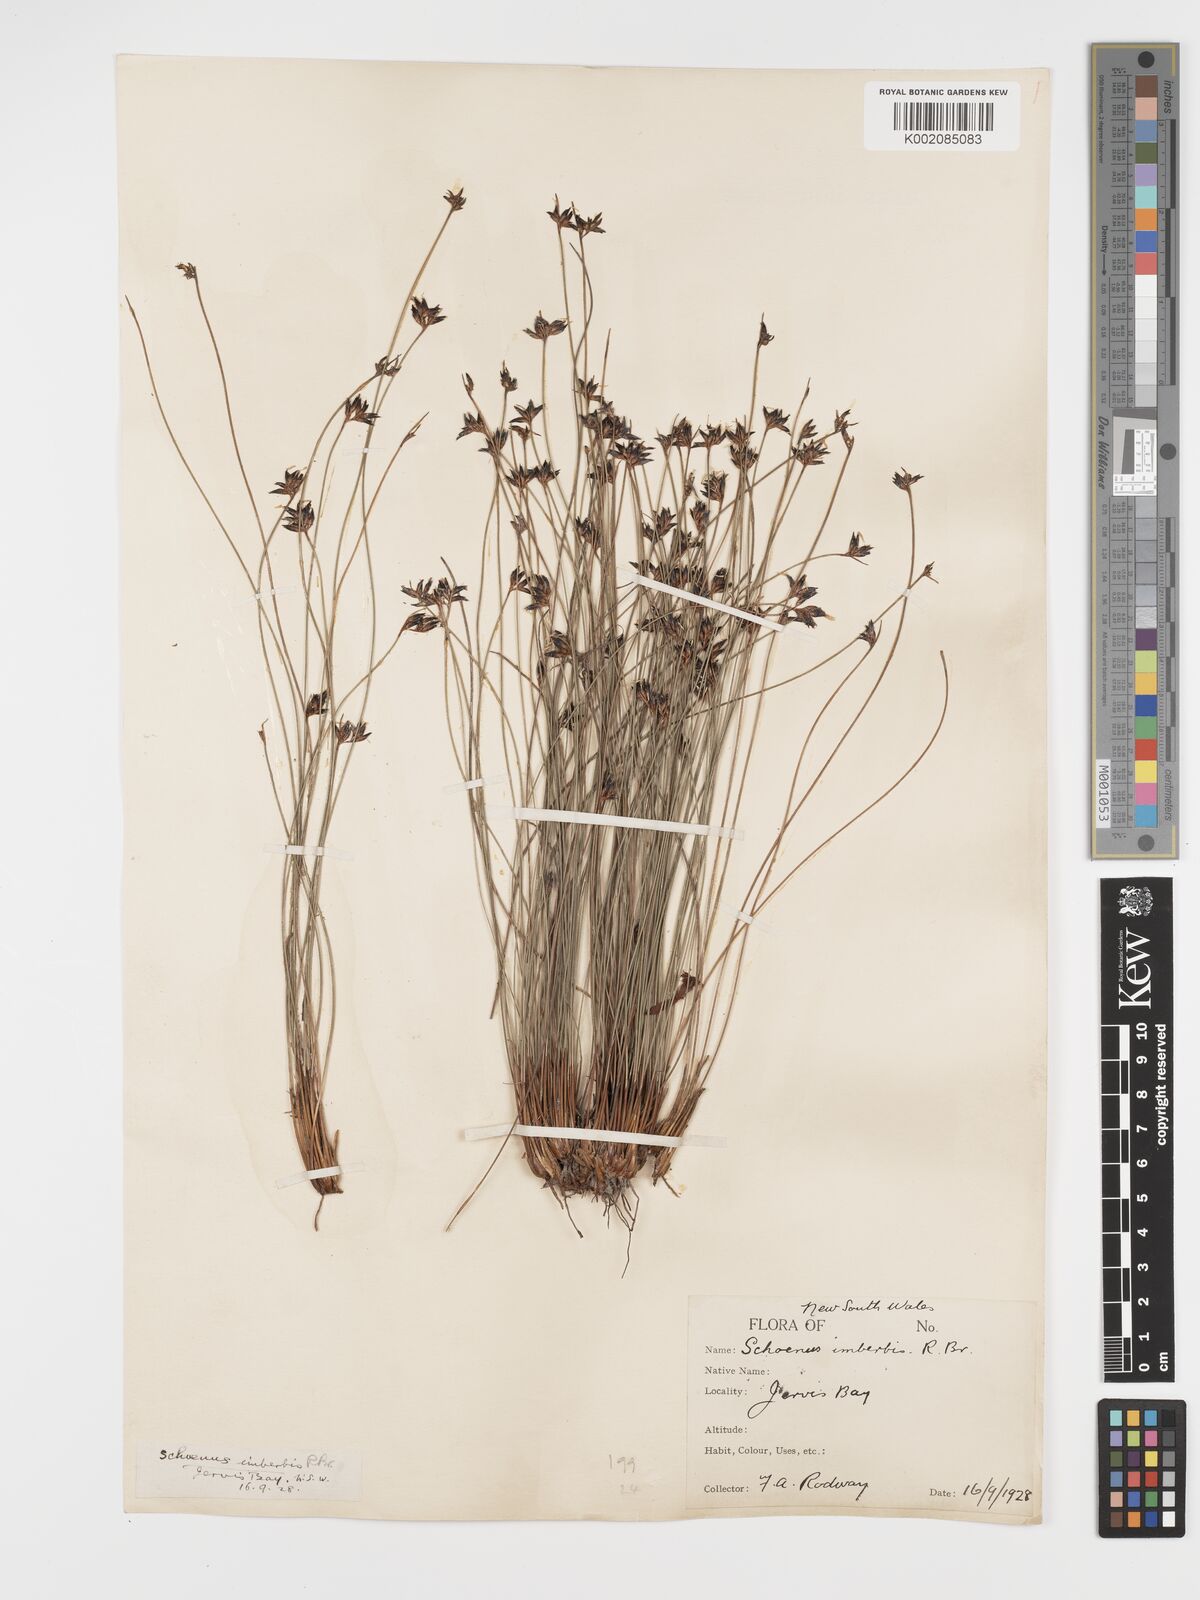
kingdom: Plantae
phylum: Tracheophyta
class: Liliopsida
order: Poales
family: Cyperaceae
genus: Schoenus
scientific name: Schoenus imberbis
